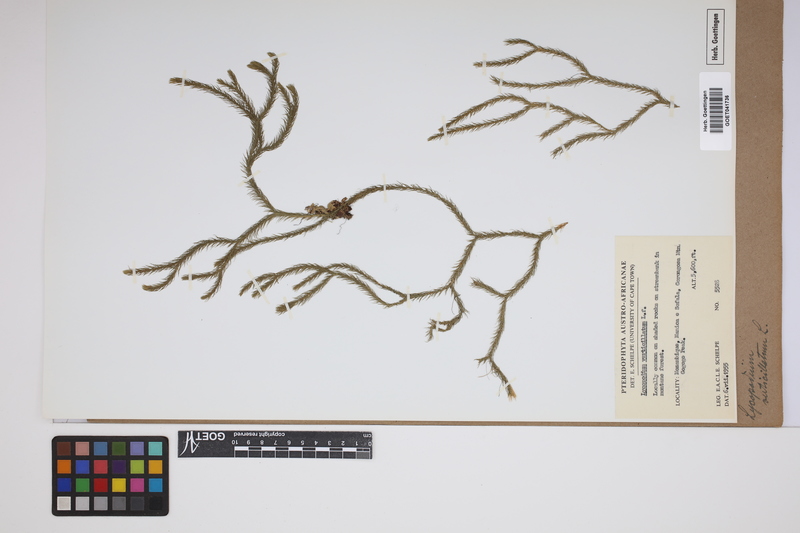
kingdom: Plantae
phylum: Tracheophyta
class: Lycopodiopsida
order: Lycopodiales
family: Lycopodiaceae
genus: Phlegmariurus
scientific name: Phlegmariurus verticillatus
